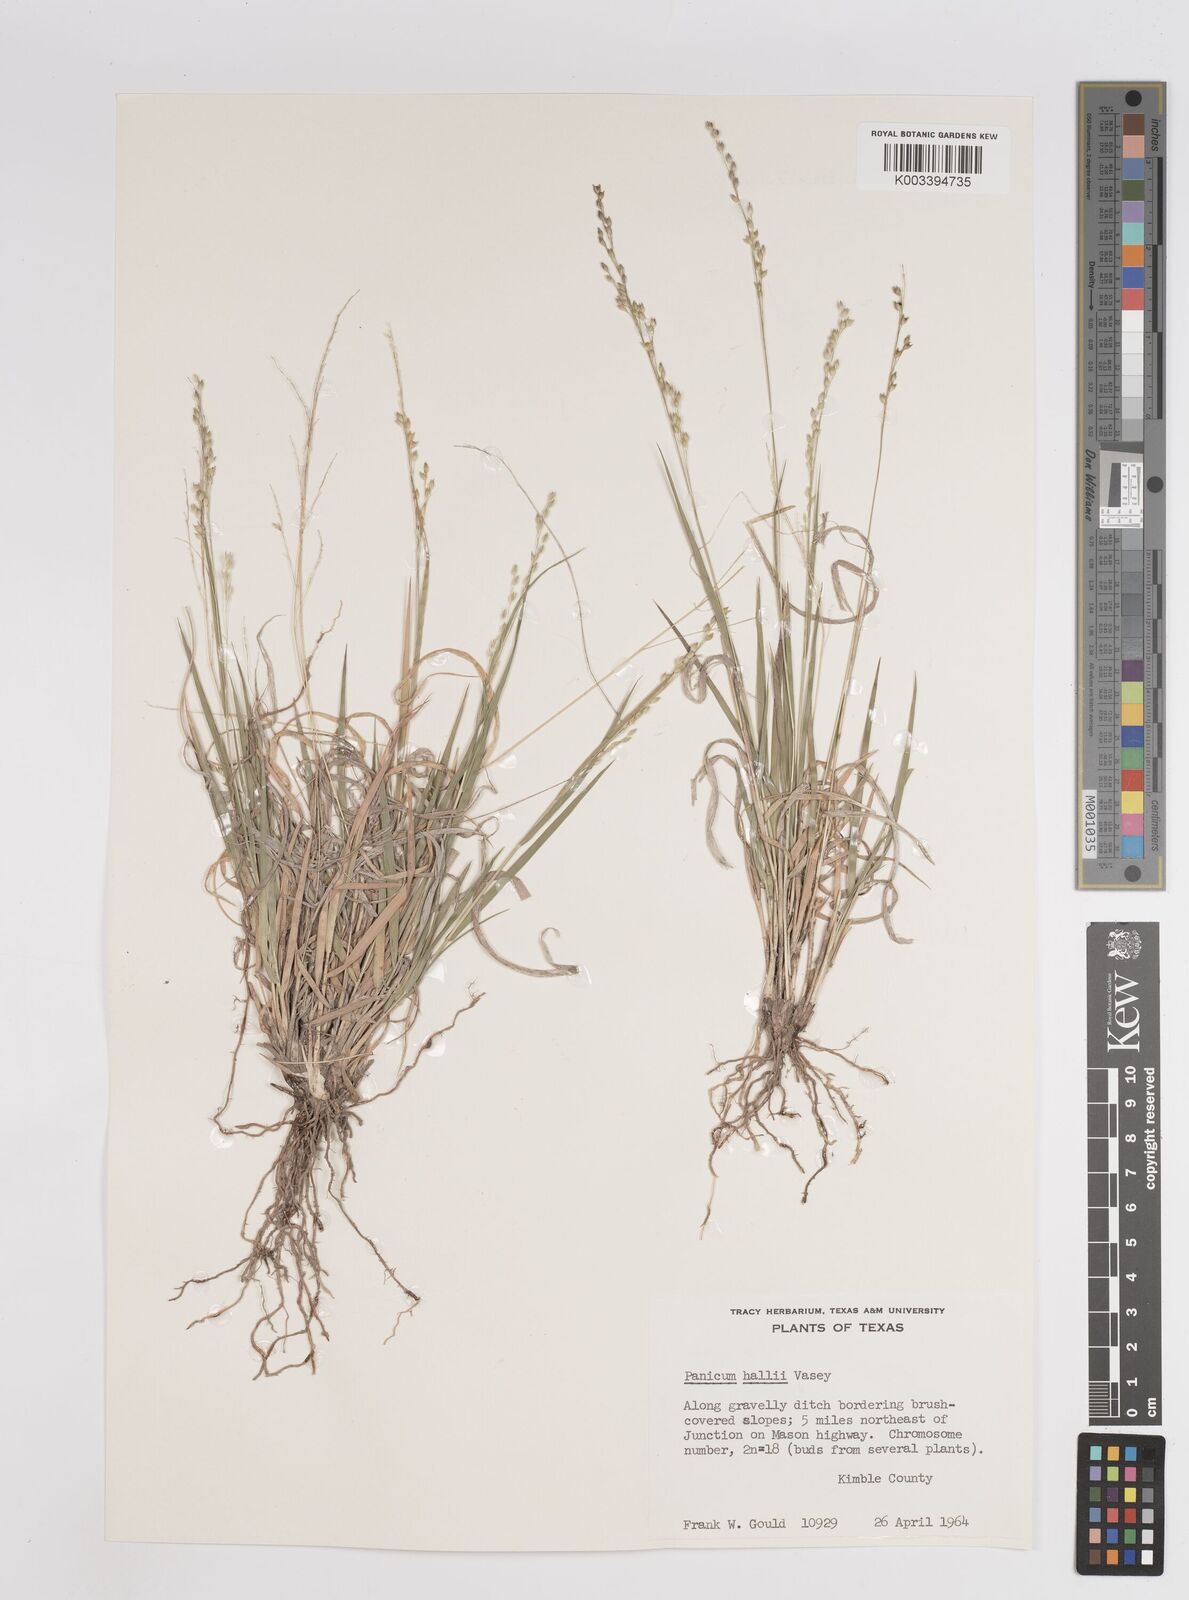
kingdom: Plantae
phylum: Tracheophyta
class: Liliopsida
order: Poales
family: Poaceae
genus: Panicum
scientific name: Panicum hallii
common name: Hall's witchgrass
